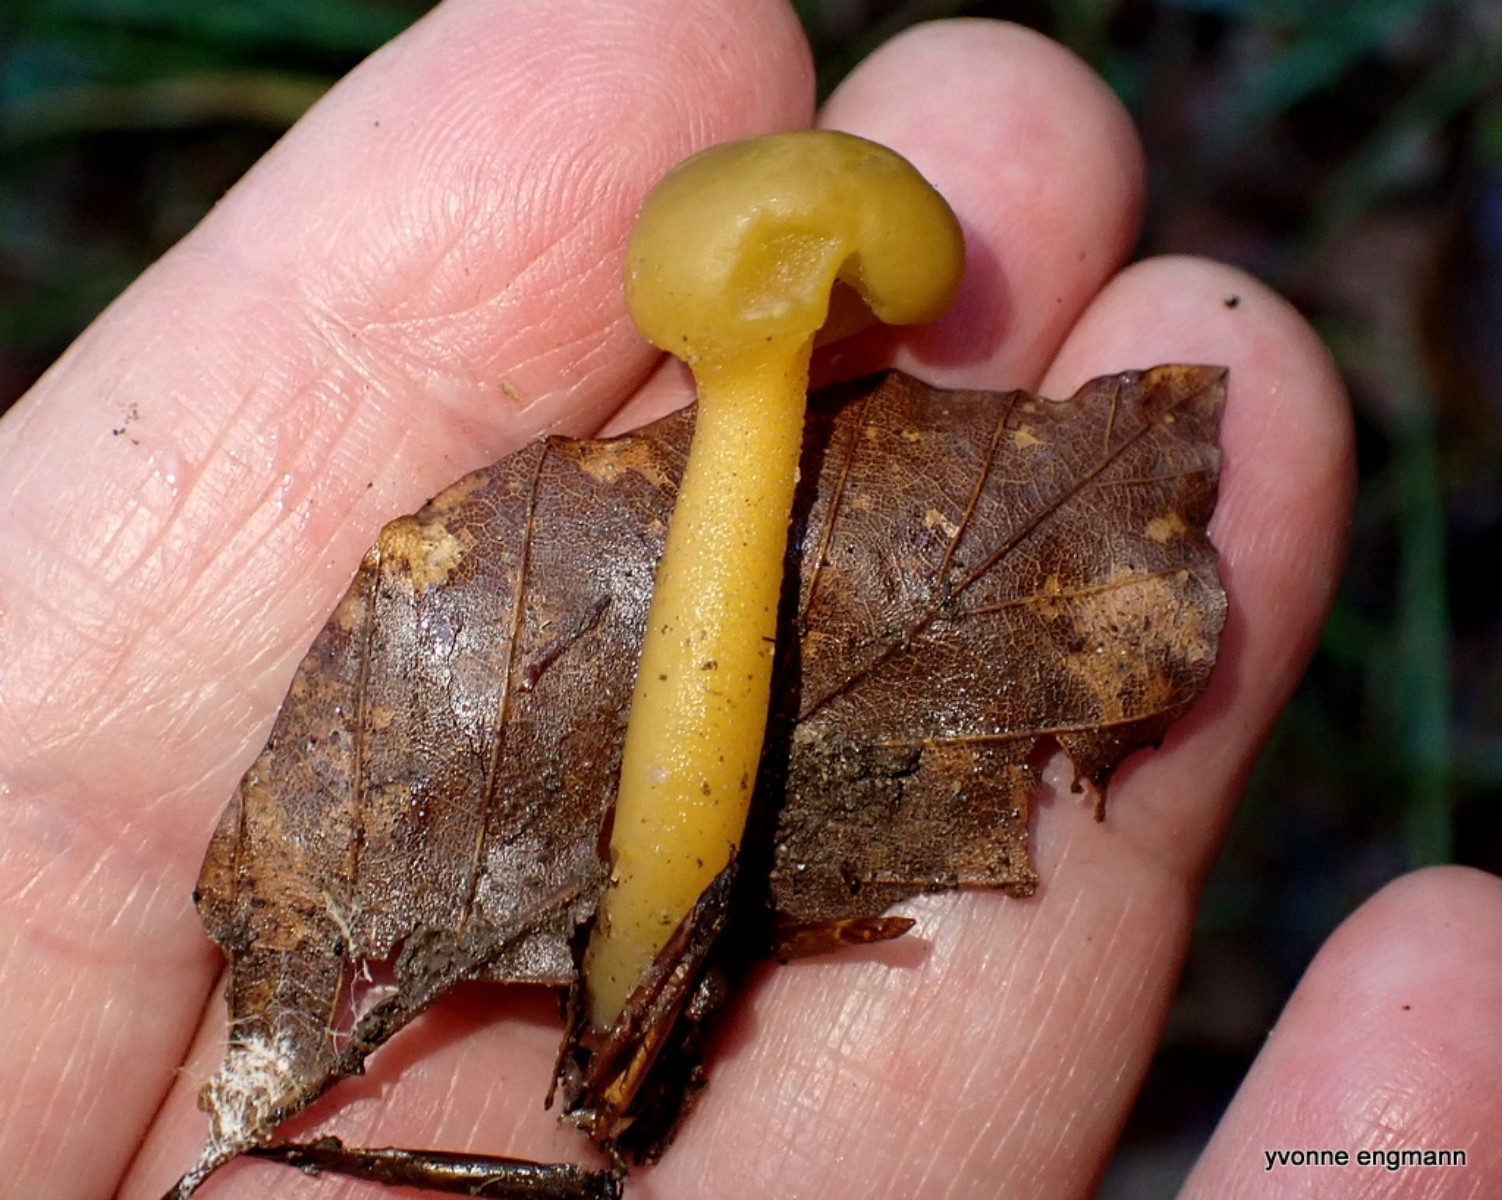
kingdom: Fungi
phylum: Ascomycota
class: Leotiomycetes
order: Leotiales
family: Leotiaceae
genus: Leotia
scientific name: Leotia lubrica
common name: ravsvamp
